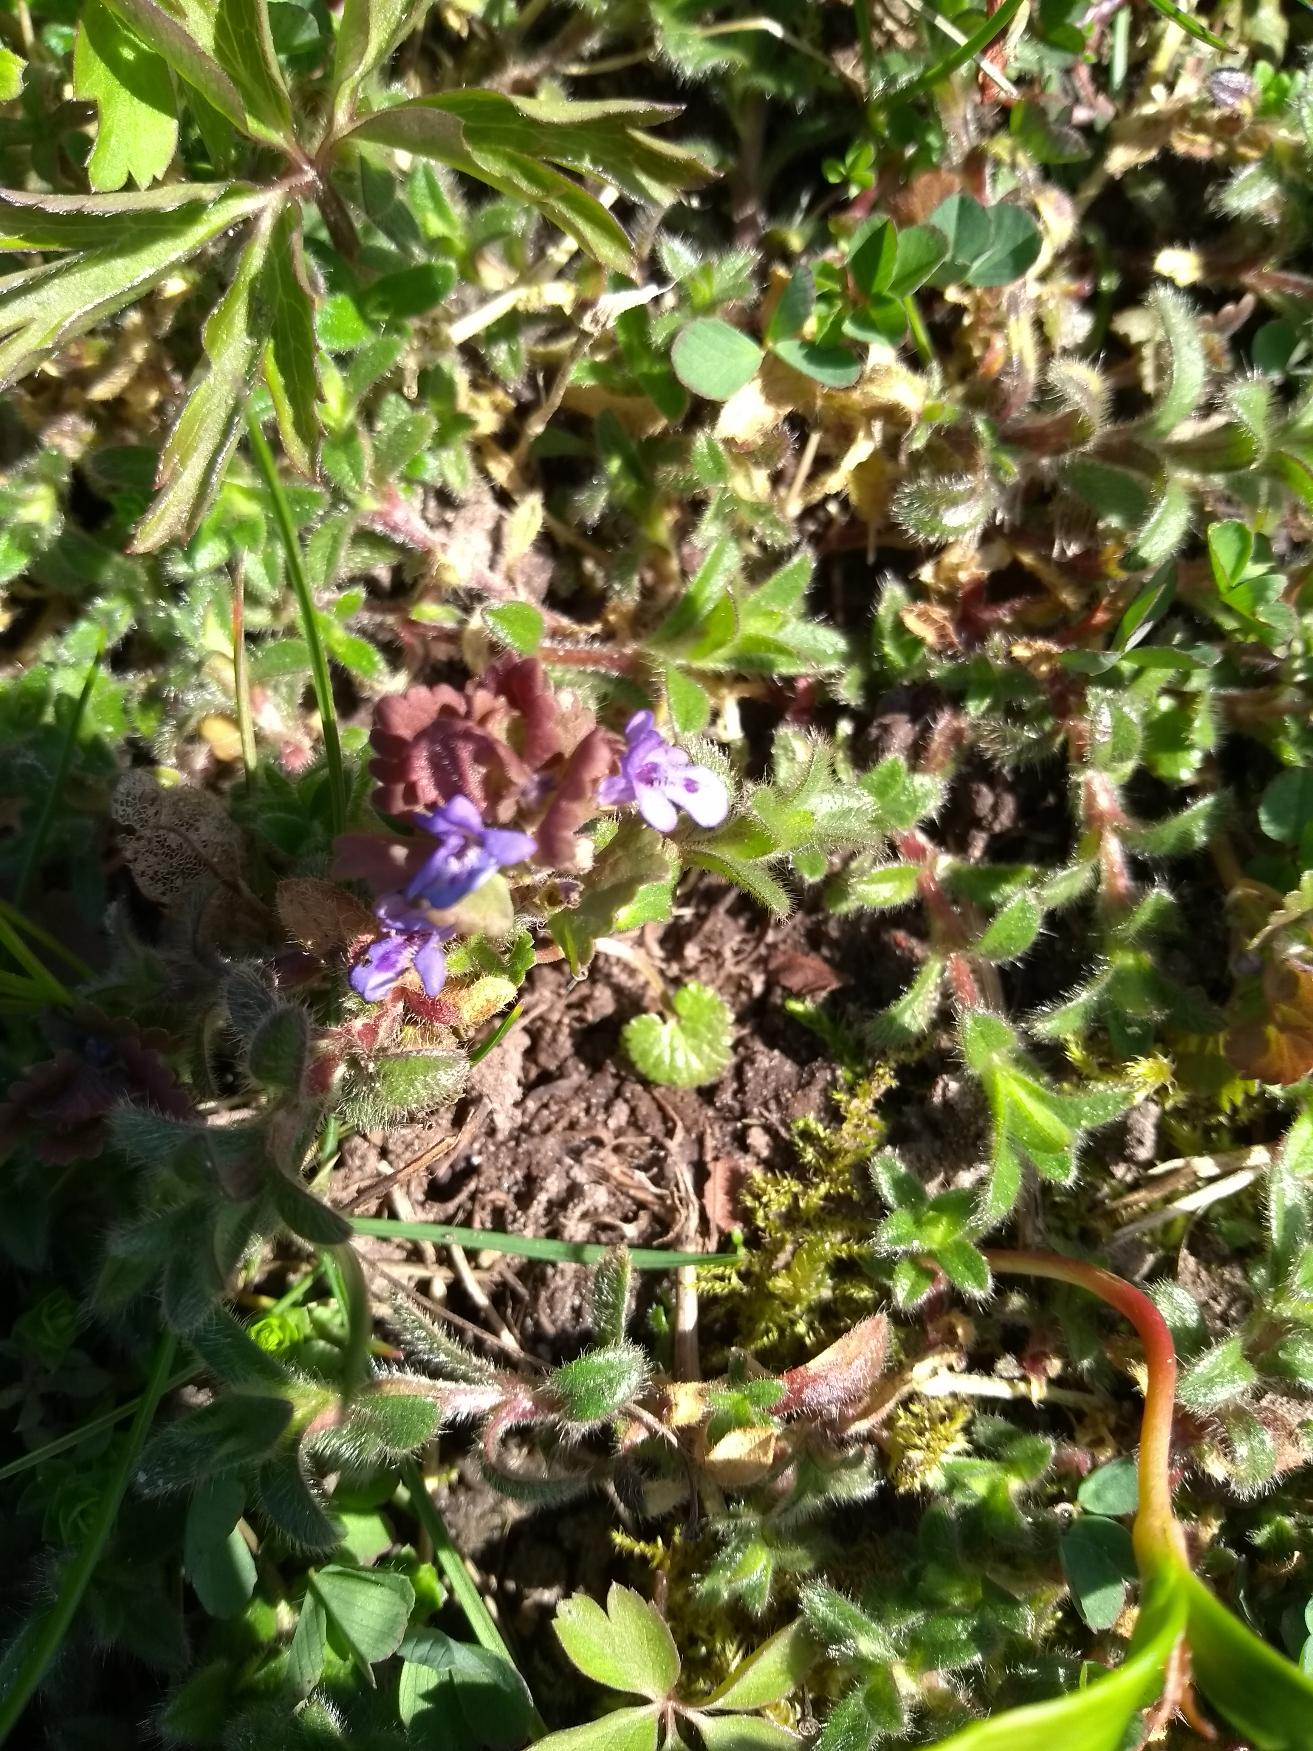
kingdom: Plantae
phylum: Tracheophyta
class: Magnoliopsida
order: Lamiales
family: Lamiaceae
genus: Glechoma
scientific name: Glechoma hederacea
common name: Korsknap
